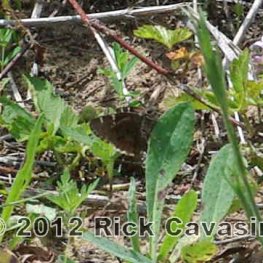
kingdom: Animalia
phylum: Arthropoda
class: Insecta
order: Lepidoptera
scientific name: Lepidoptera
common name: Butterflies
